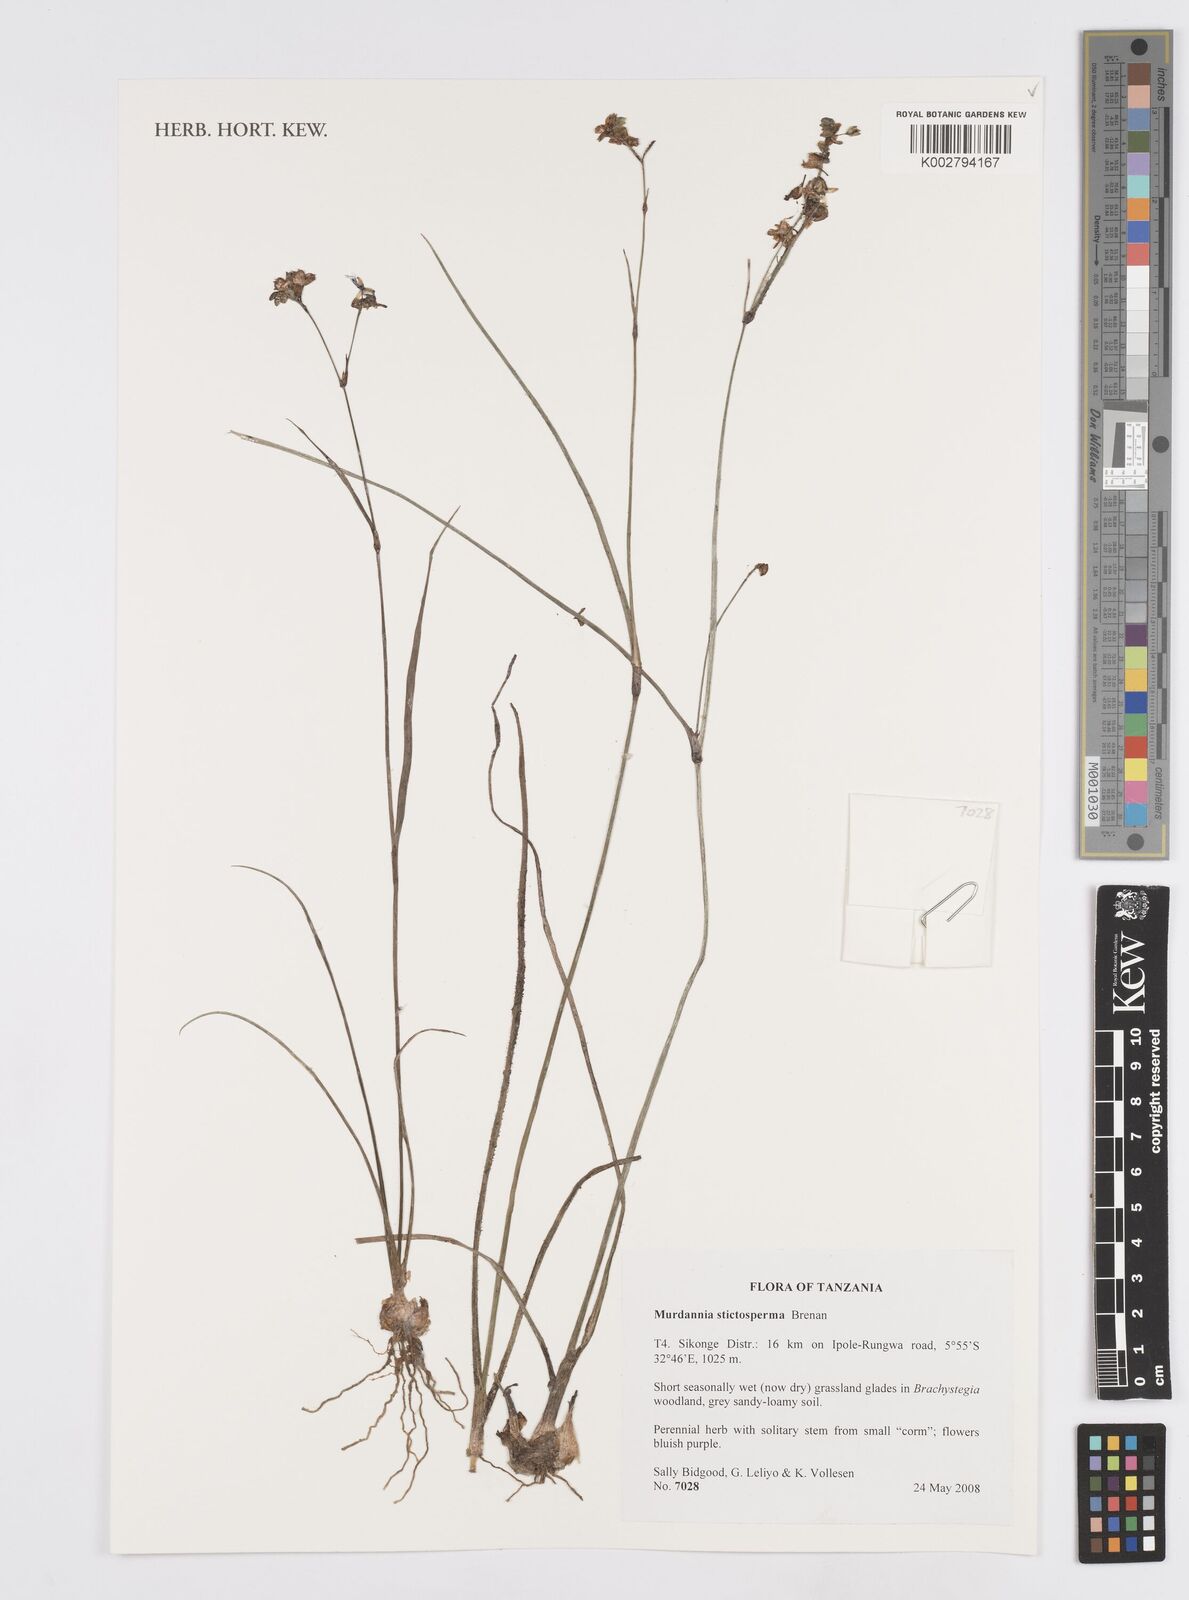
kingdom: Plantae
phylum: Tracheophyta
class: Liliopsida
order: Commelinales
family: Commelinaceae
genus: Murdannia
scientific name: Murdannia simplex
